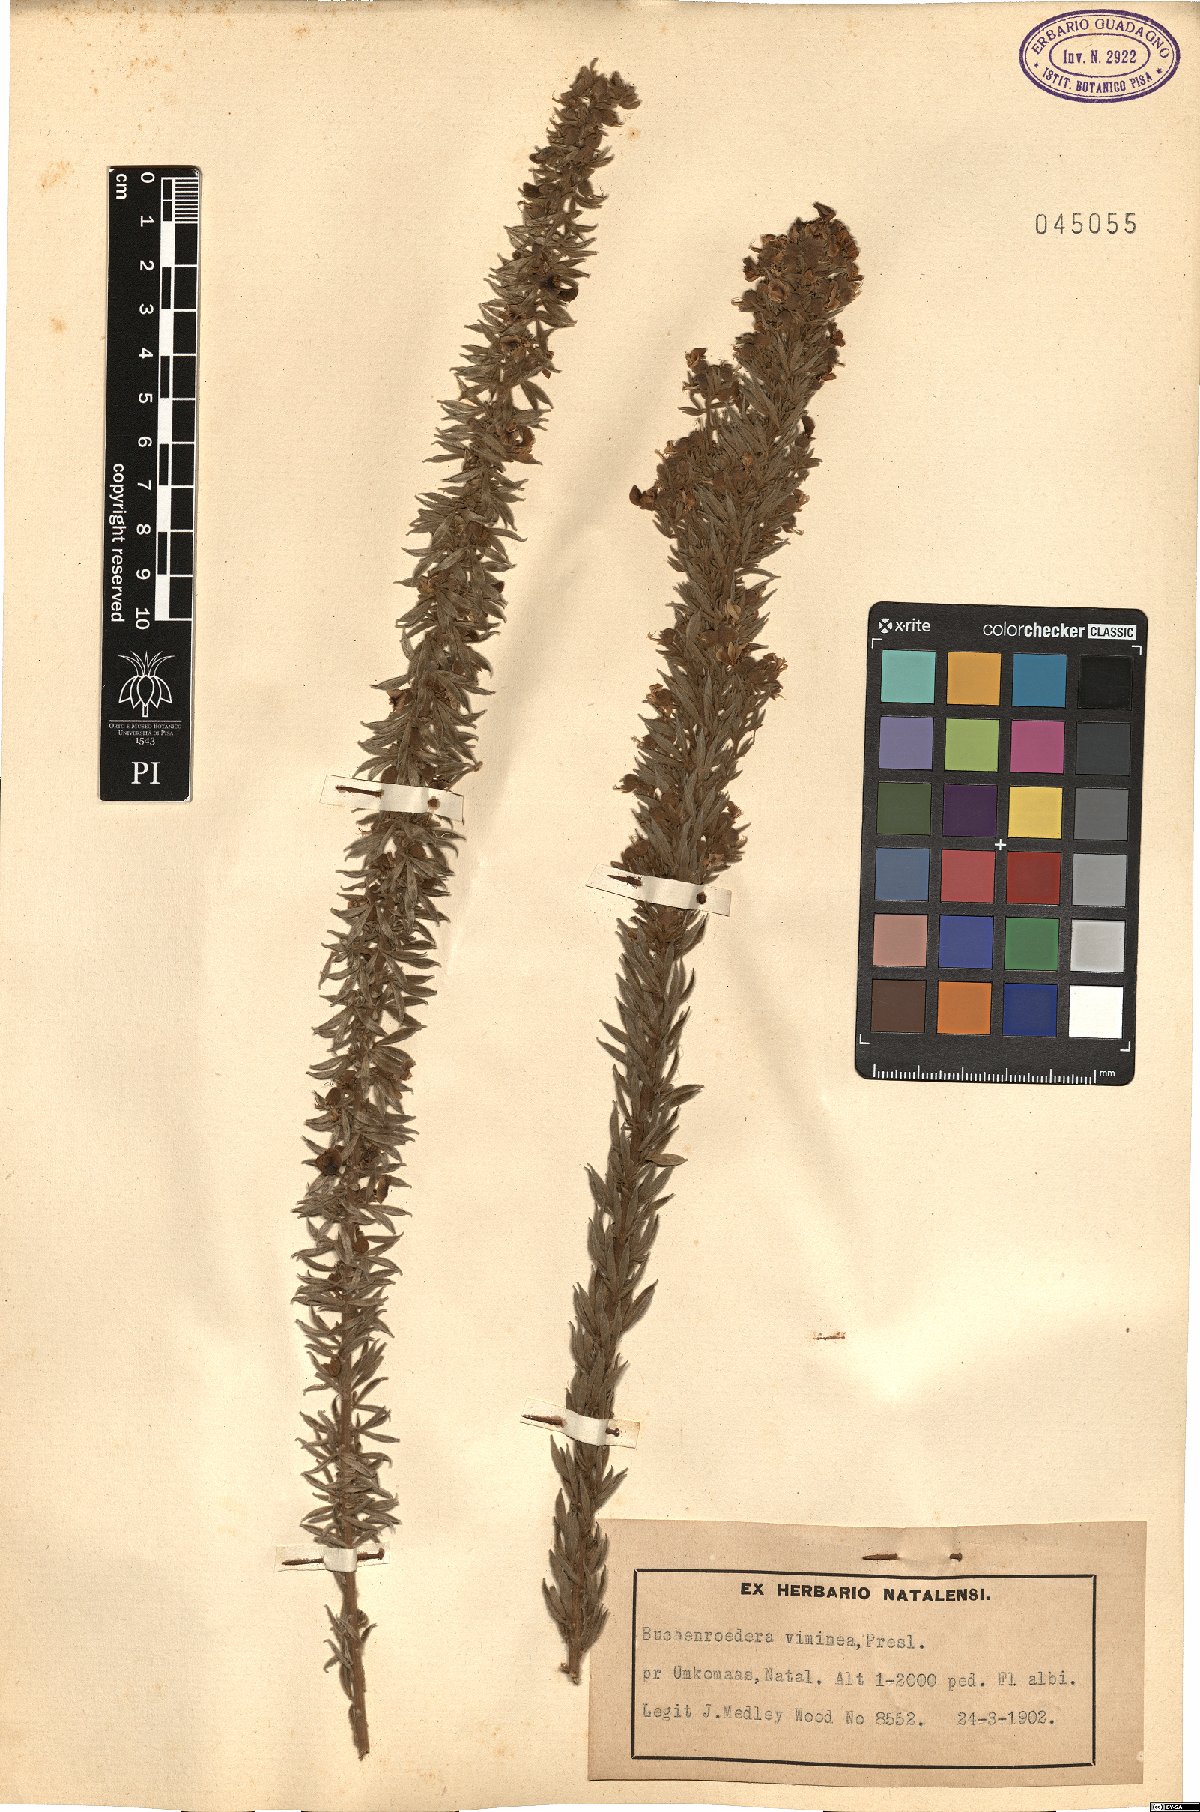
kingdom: Plantae
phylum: Tracheophyta
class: Magnoliopsida
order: Fabales
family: Fabaceae
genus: Lotononis
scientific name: Lotononis viminea
